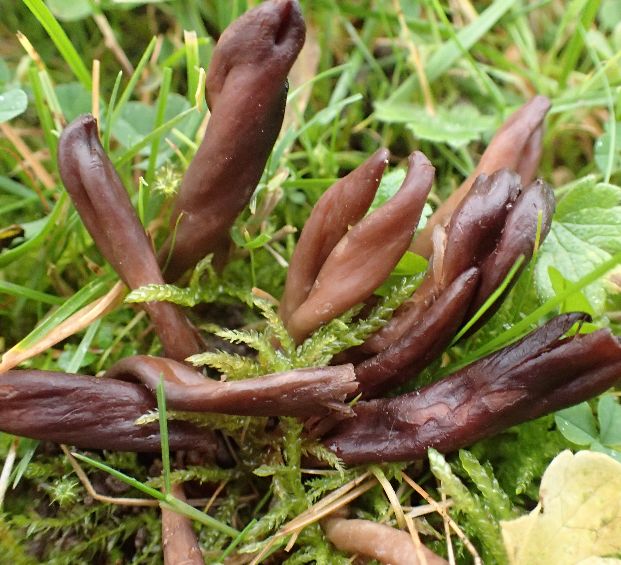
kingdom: Fungi
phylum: Ascomycota
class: Leotiomycetes
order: Leotiales
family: Leotiaceae
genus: Microglossum
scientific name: Microglossum olivaceum
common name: olivenbrun farvetunge
